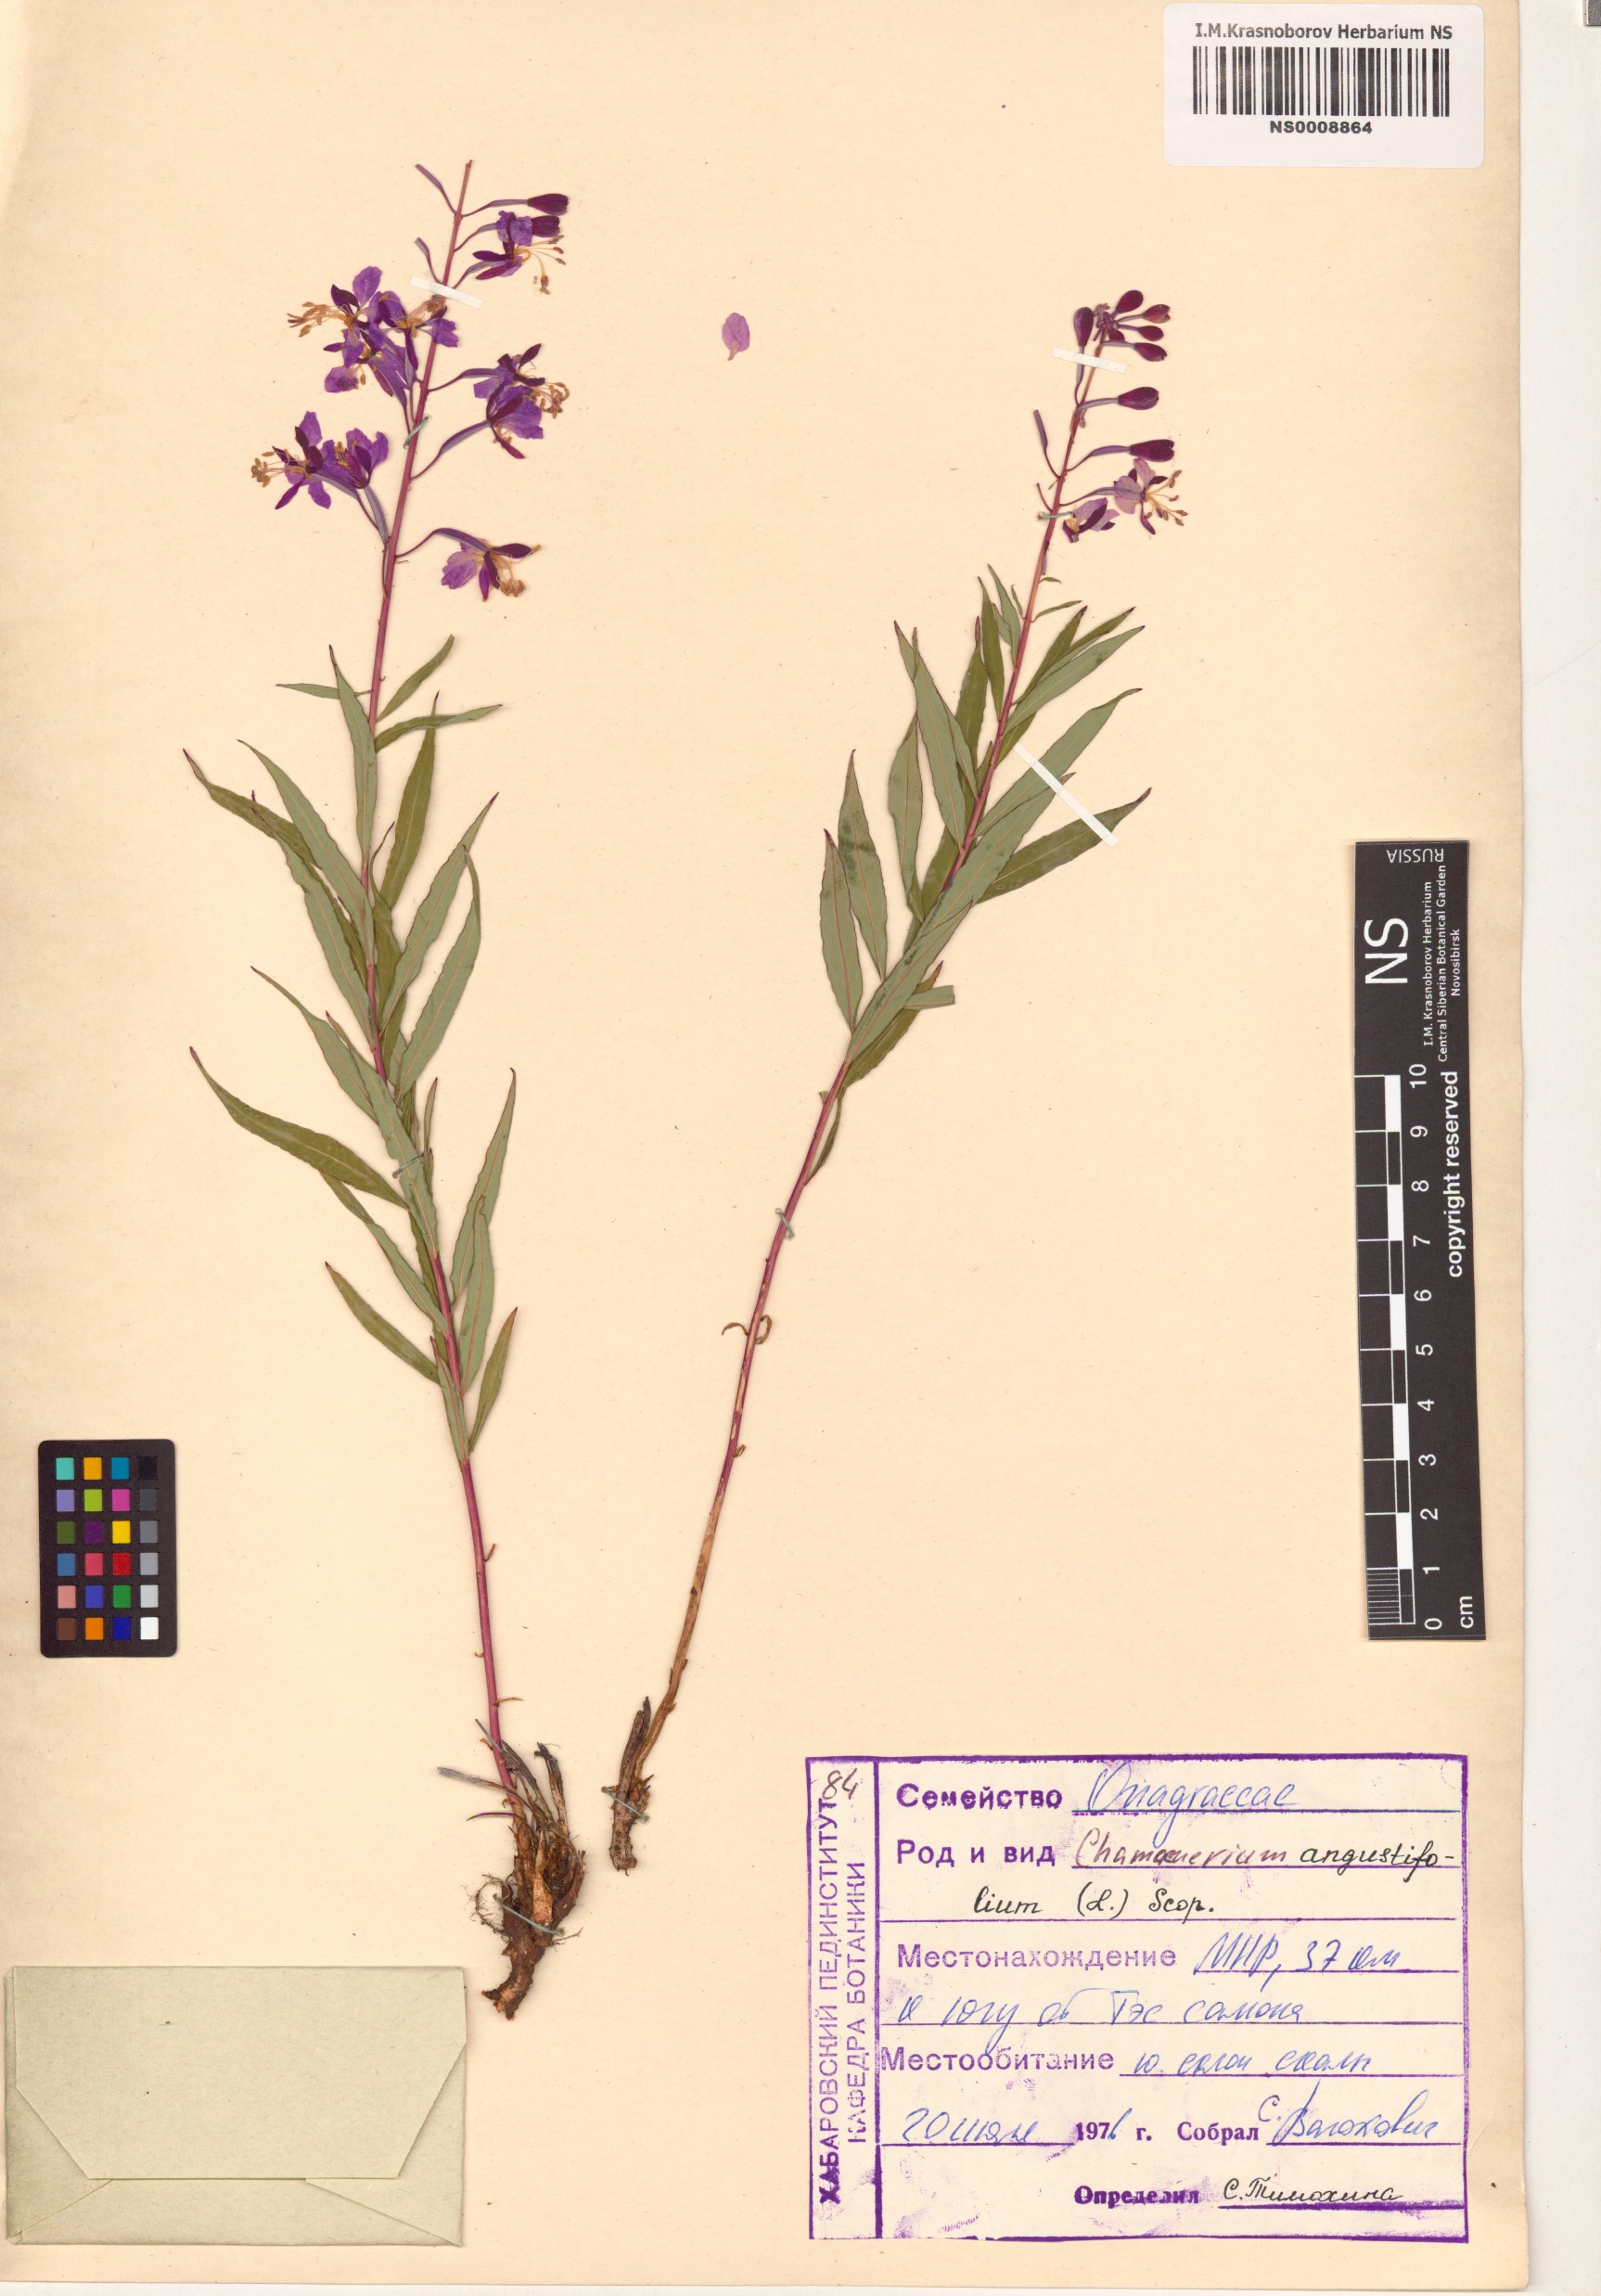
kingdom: Plantae
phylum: Tracheophyta
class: Magnoliopsida
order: Myrtales
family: Onagraceae
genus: Chamaenerion
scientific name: Chamaenerion angustifolium
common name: Fireweed
